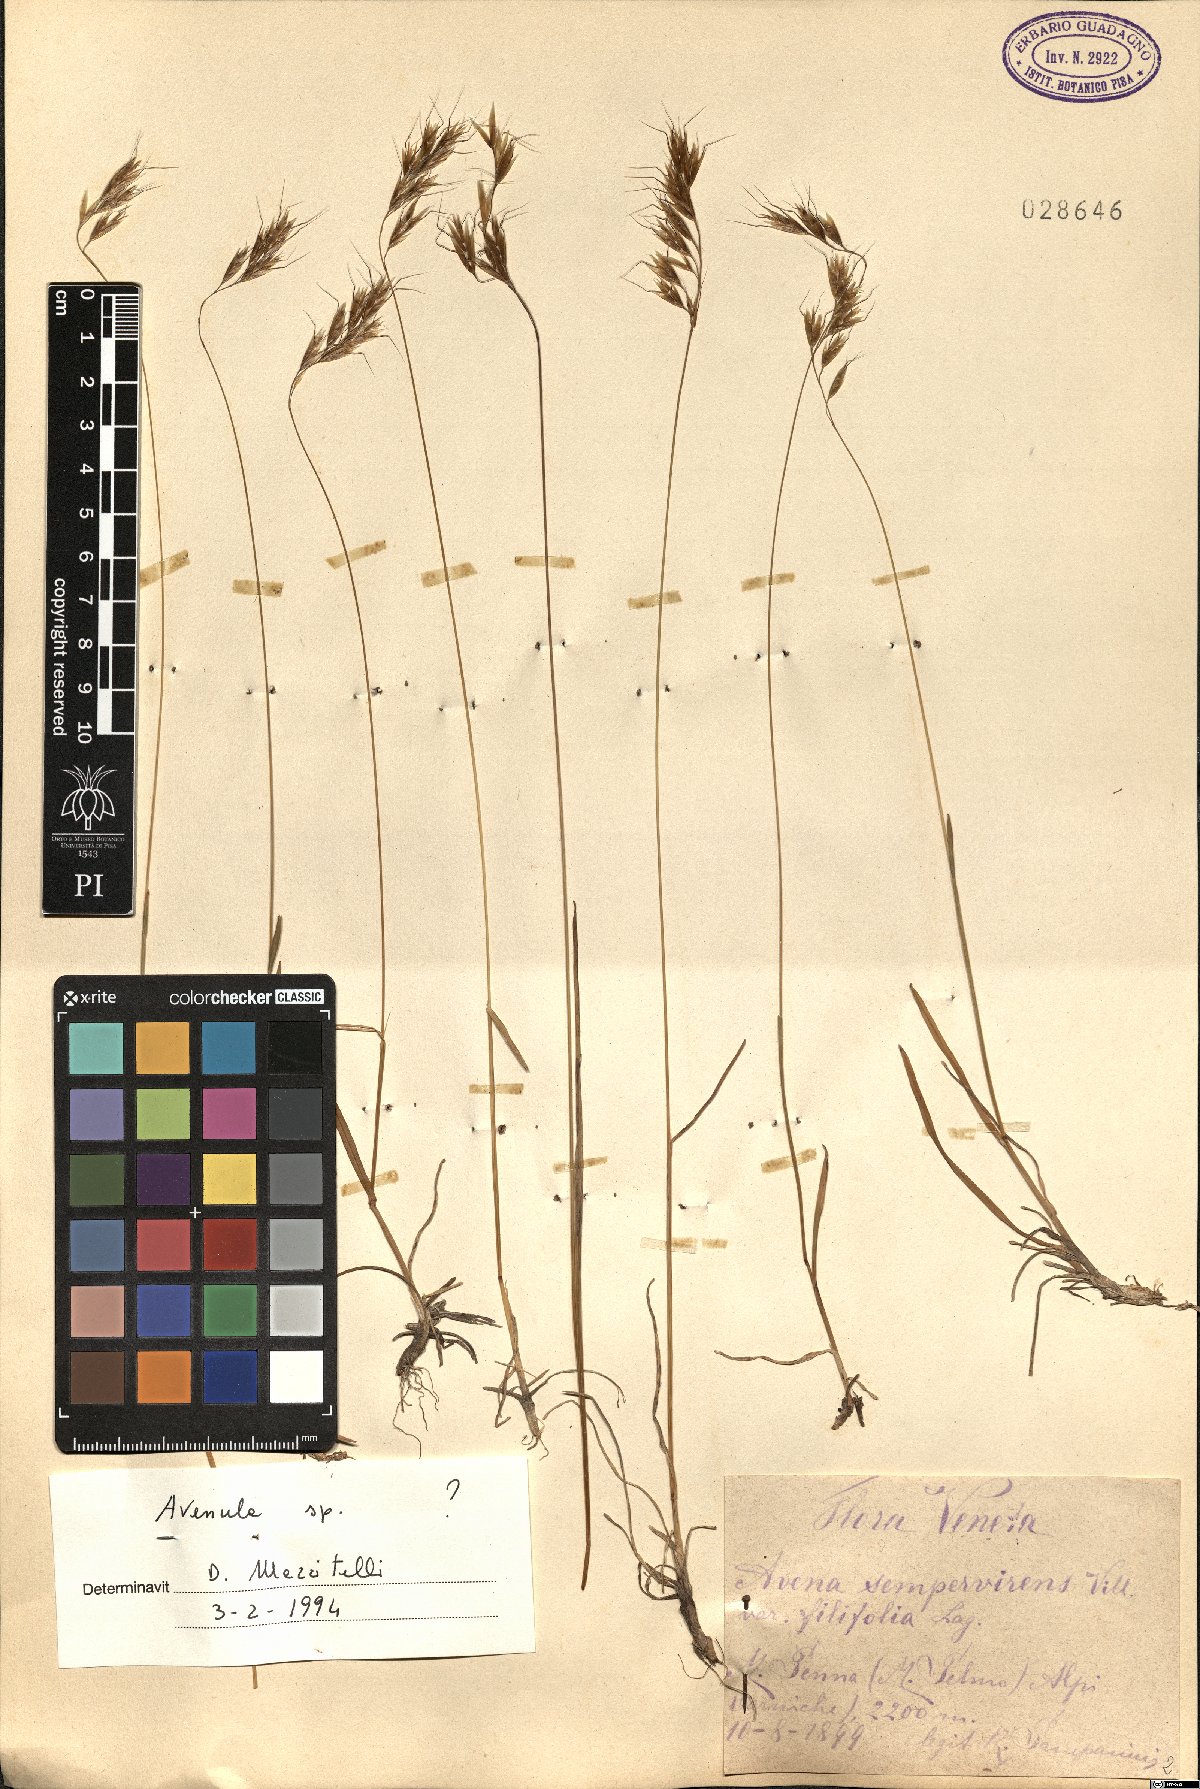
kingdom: Plantae
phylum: Tracheophyta
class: Liliopsida
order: Poales
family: Poaceae
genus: Avenula
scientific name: Avenula
